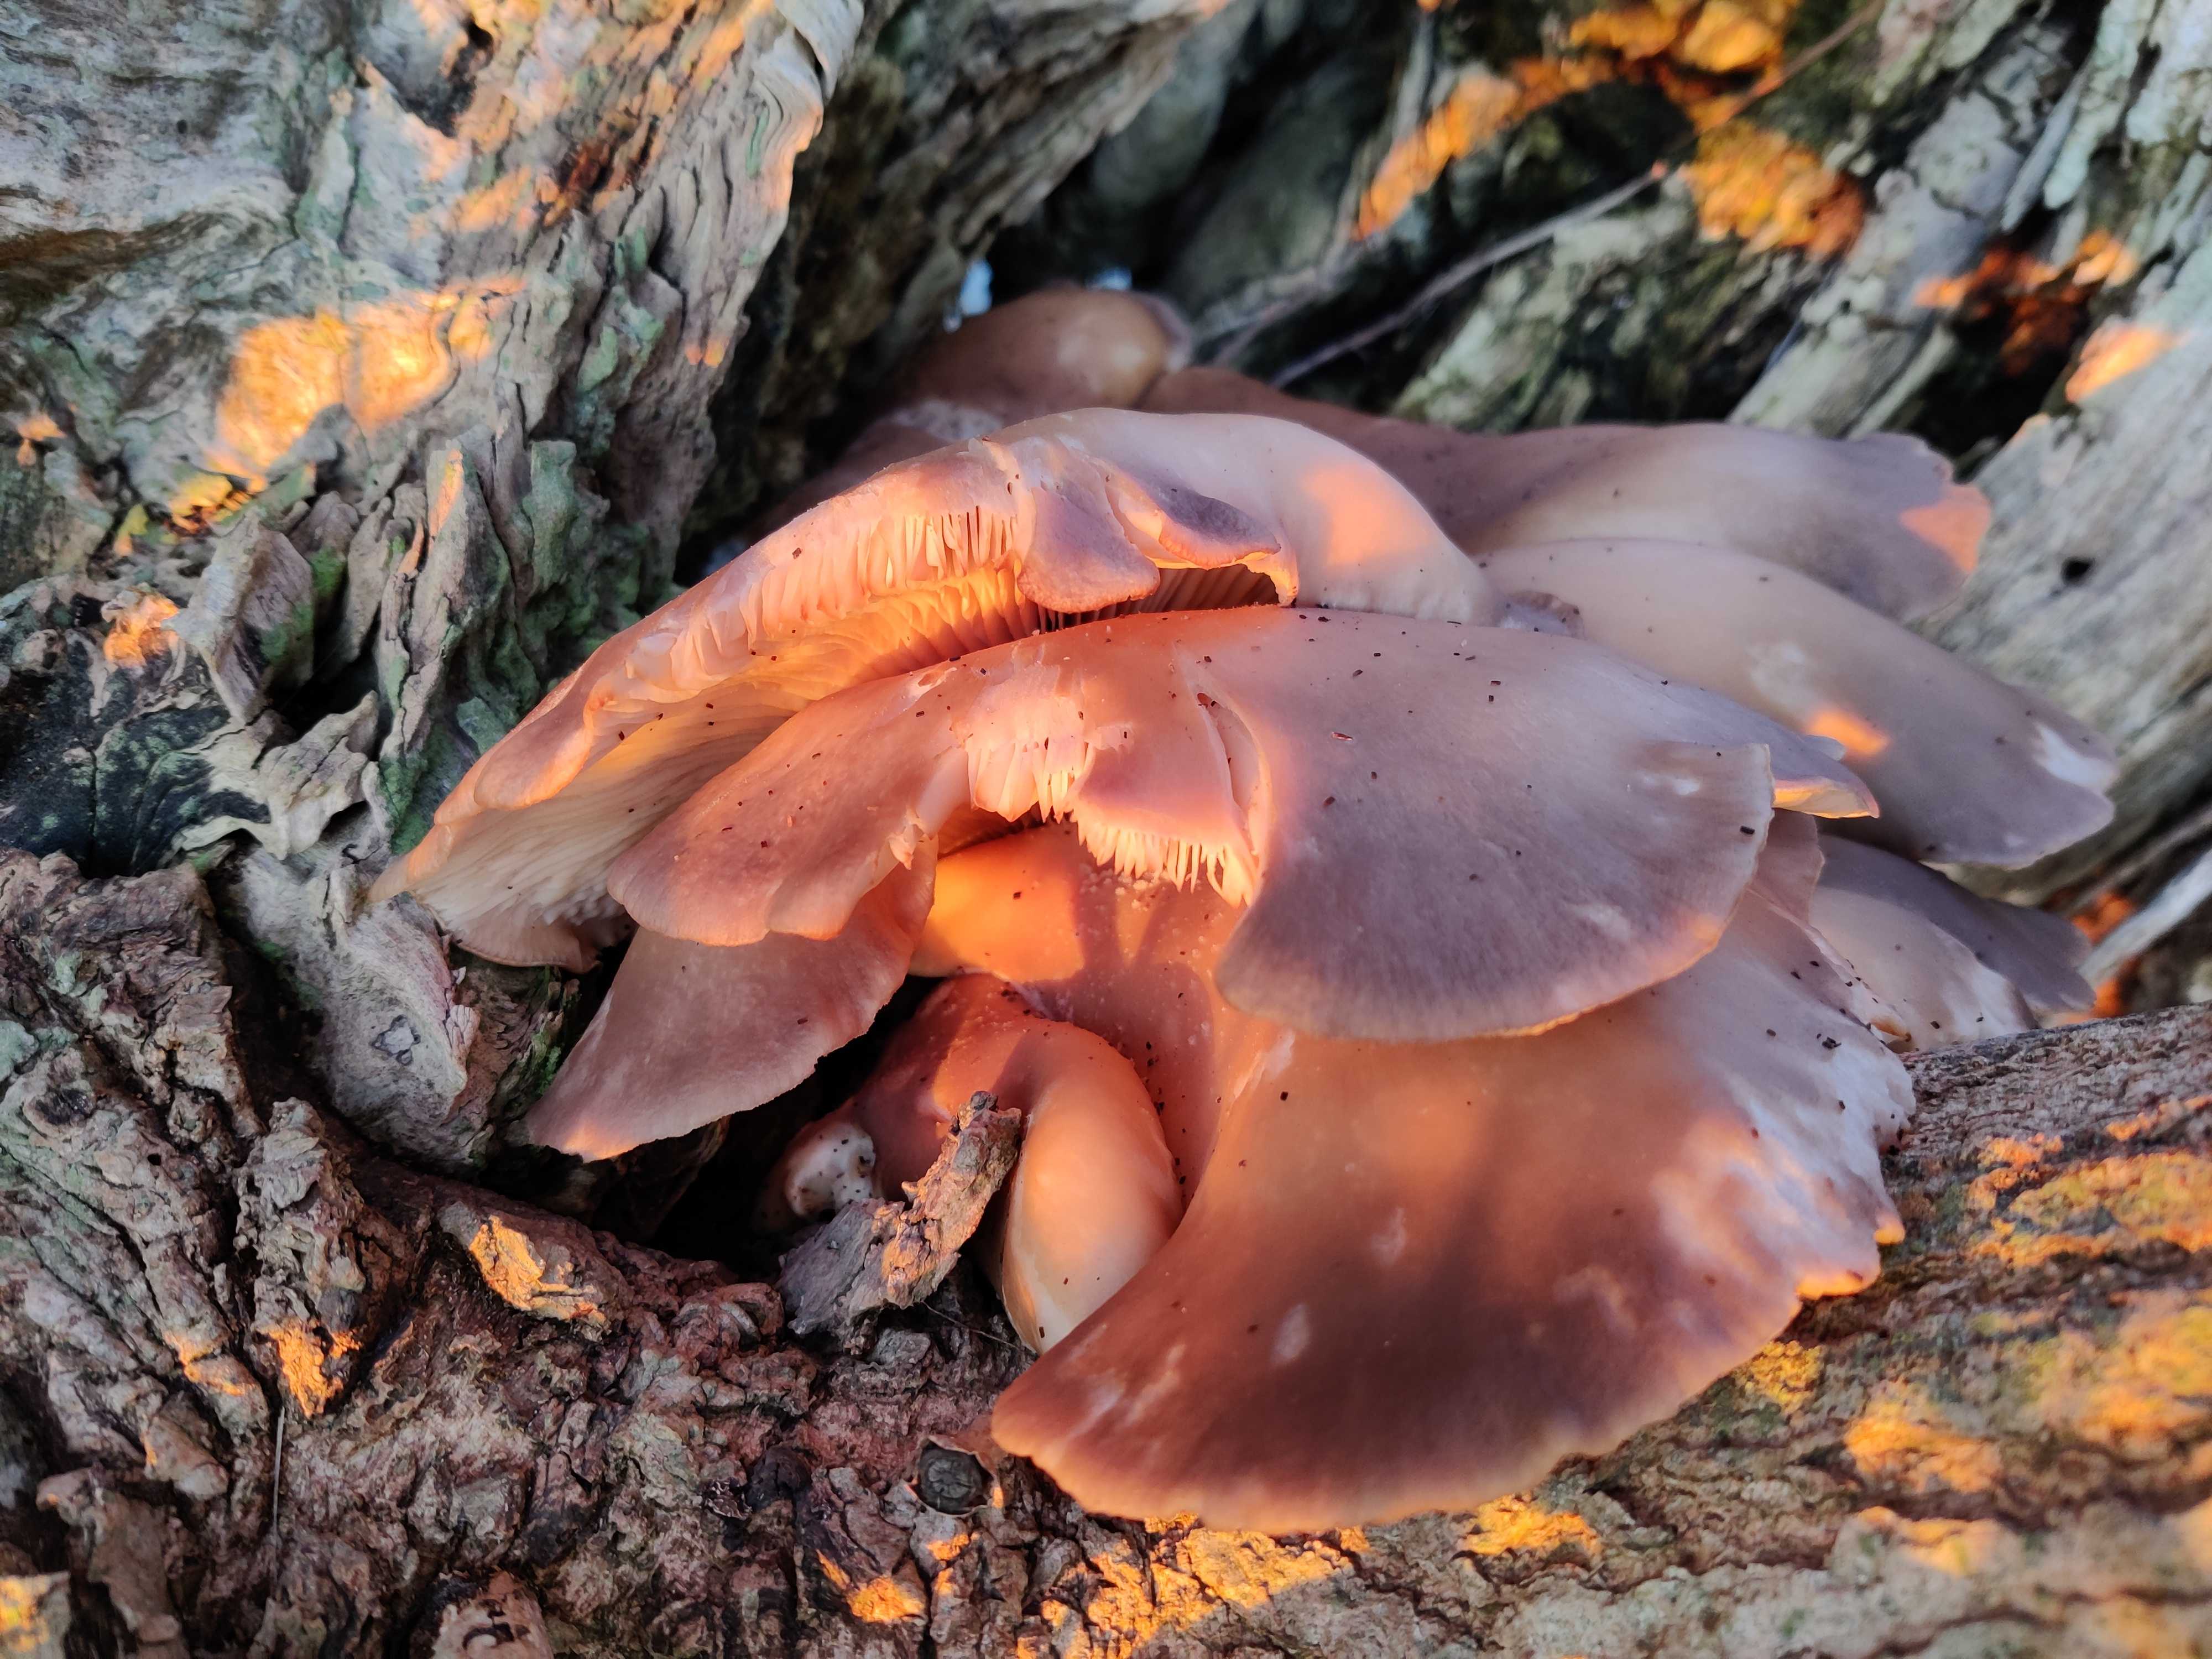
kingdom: Fungi
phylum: Basidiomycota
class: Agaricomycetes
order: Agaricales
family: Pleurotaceae
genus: Pleurotus
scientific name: Pleurotus ostreatus
